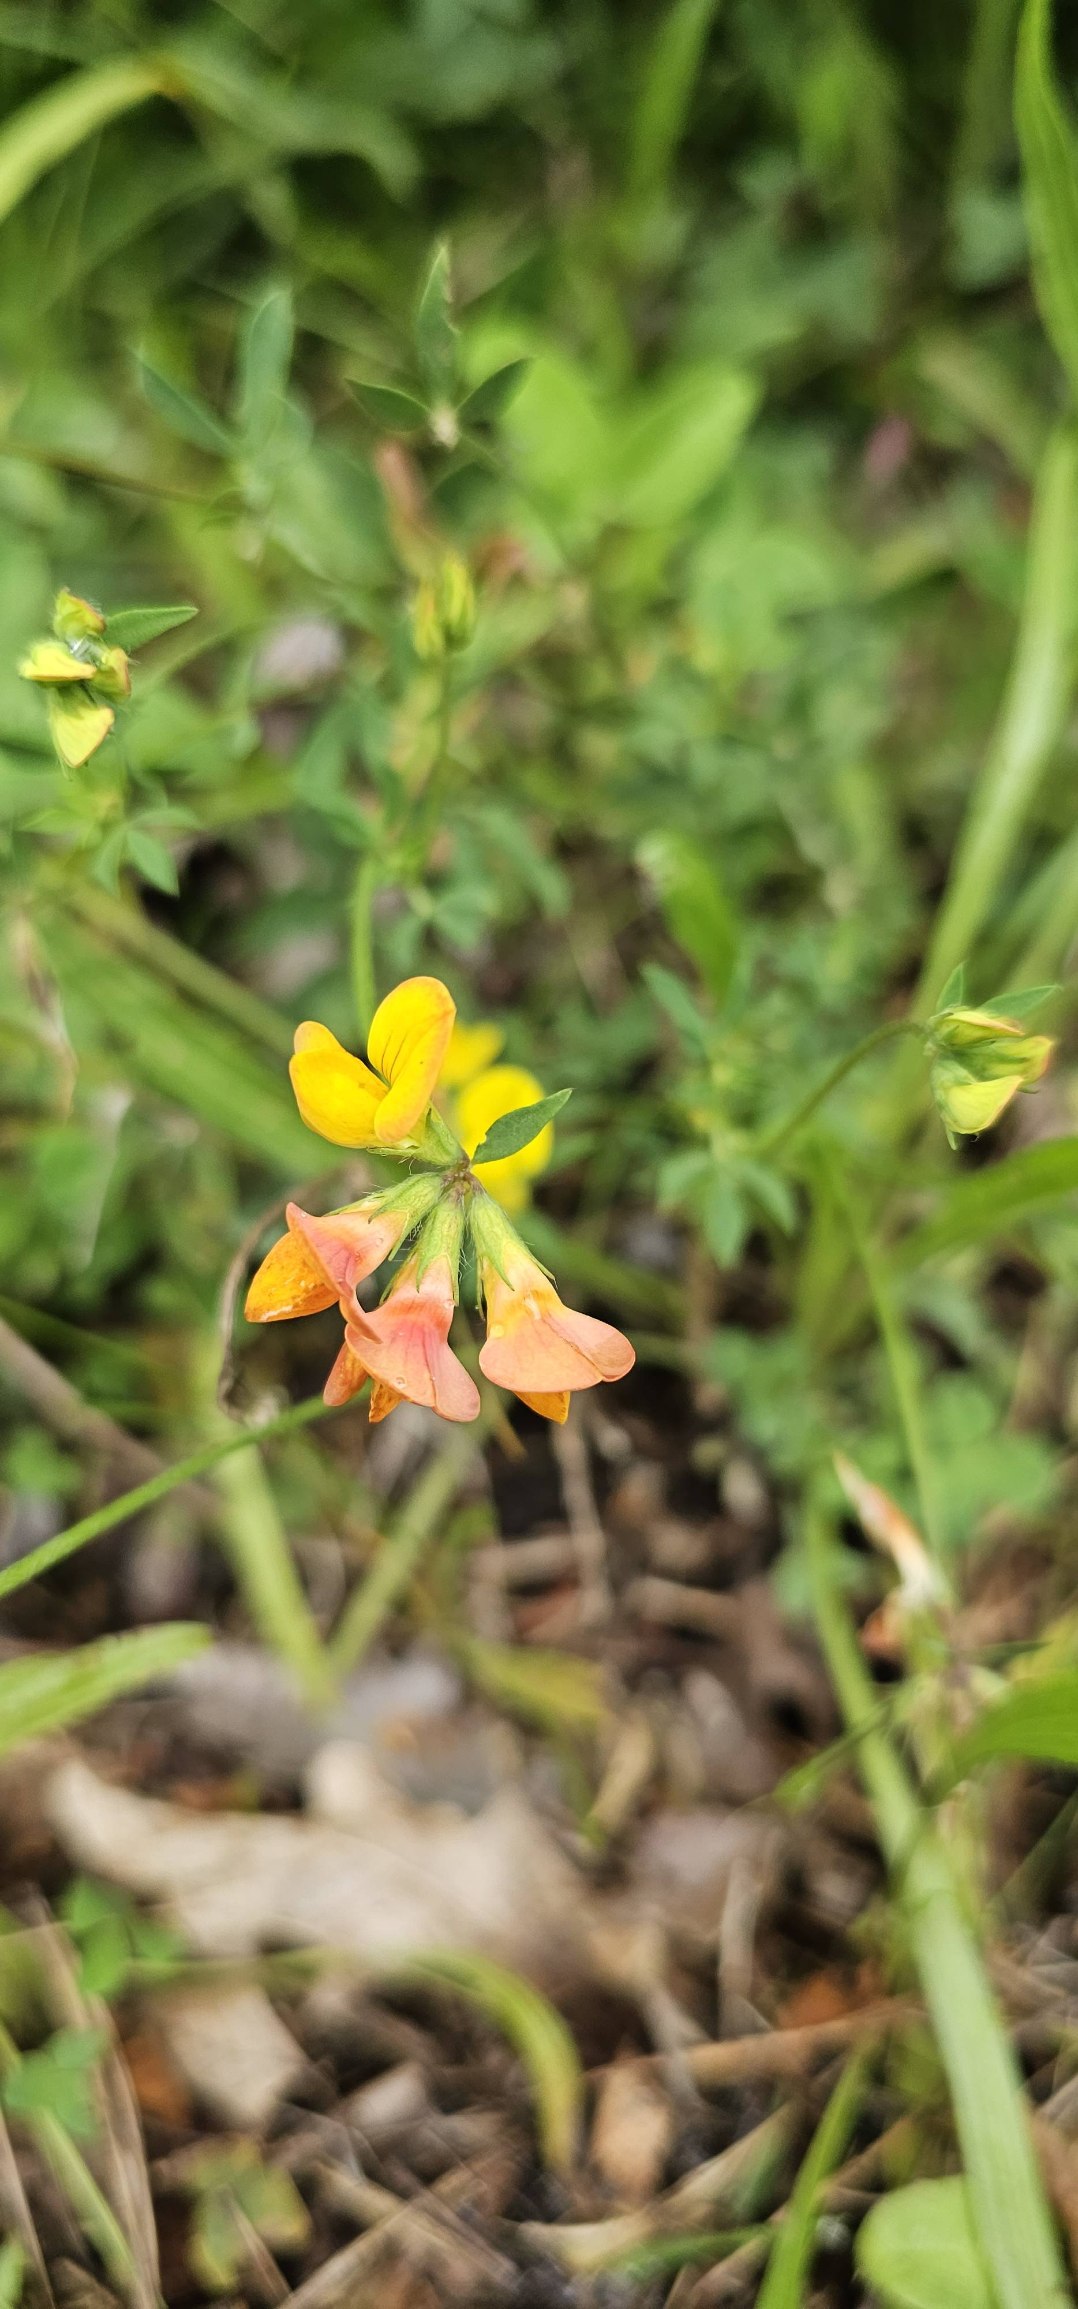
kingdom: Plantae
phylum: Tracheophyta
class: Magnoliopsida
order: Fabales
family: Fabaceae
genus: Lotus
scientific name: Lotus corniculatus
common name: Almindelig kællingetand
